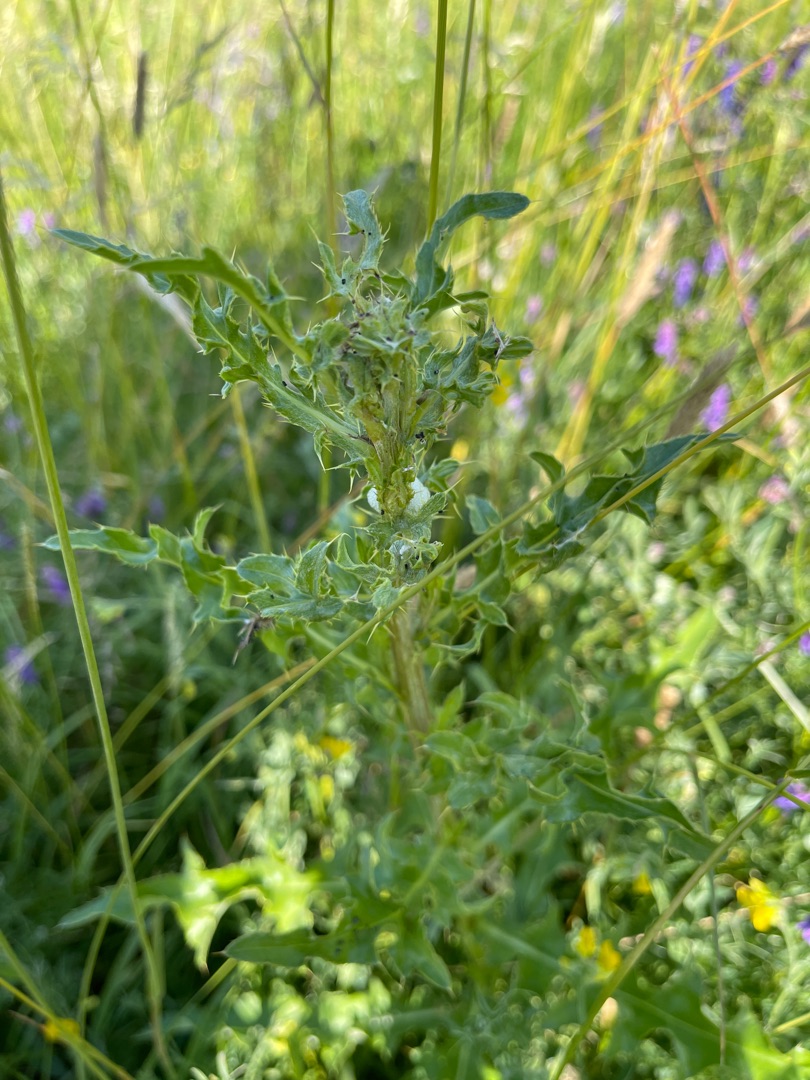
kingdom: Plantae
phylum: Tracheophyta
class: Magnoliopsida
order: Asterales
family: Asteraceae
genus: Cirsium
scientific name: Cirsium arvense
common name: Ager-tidsel
